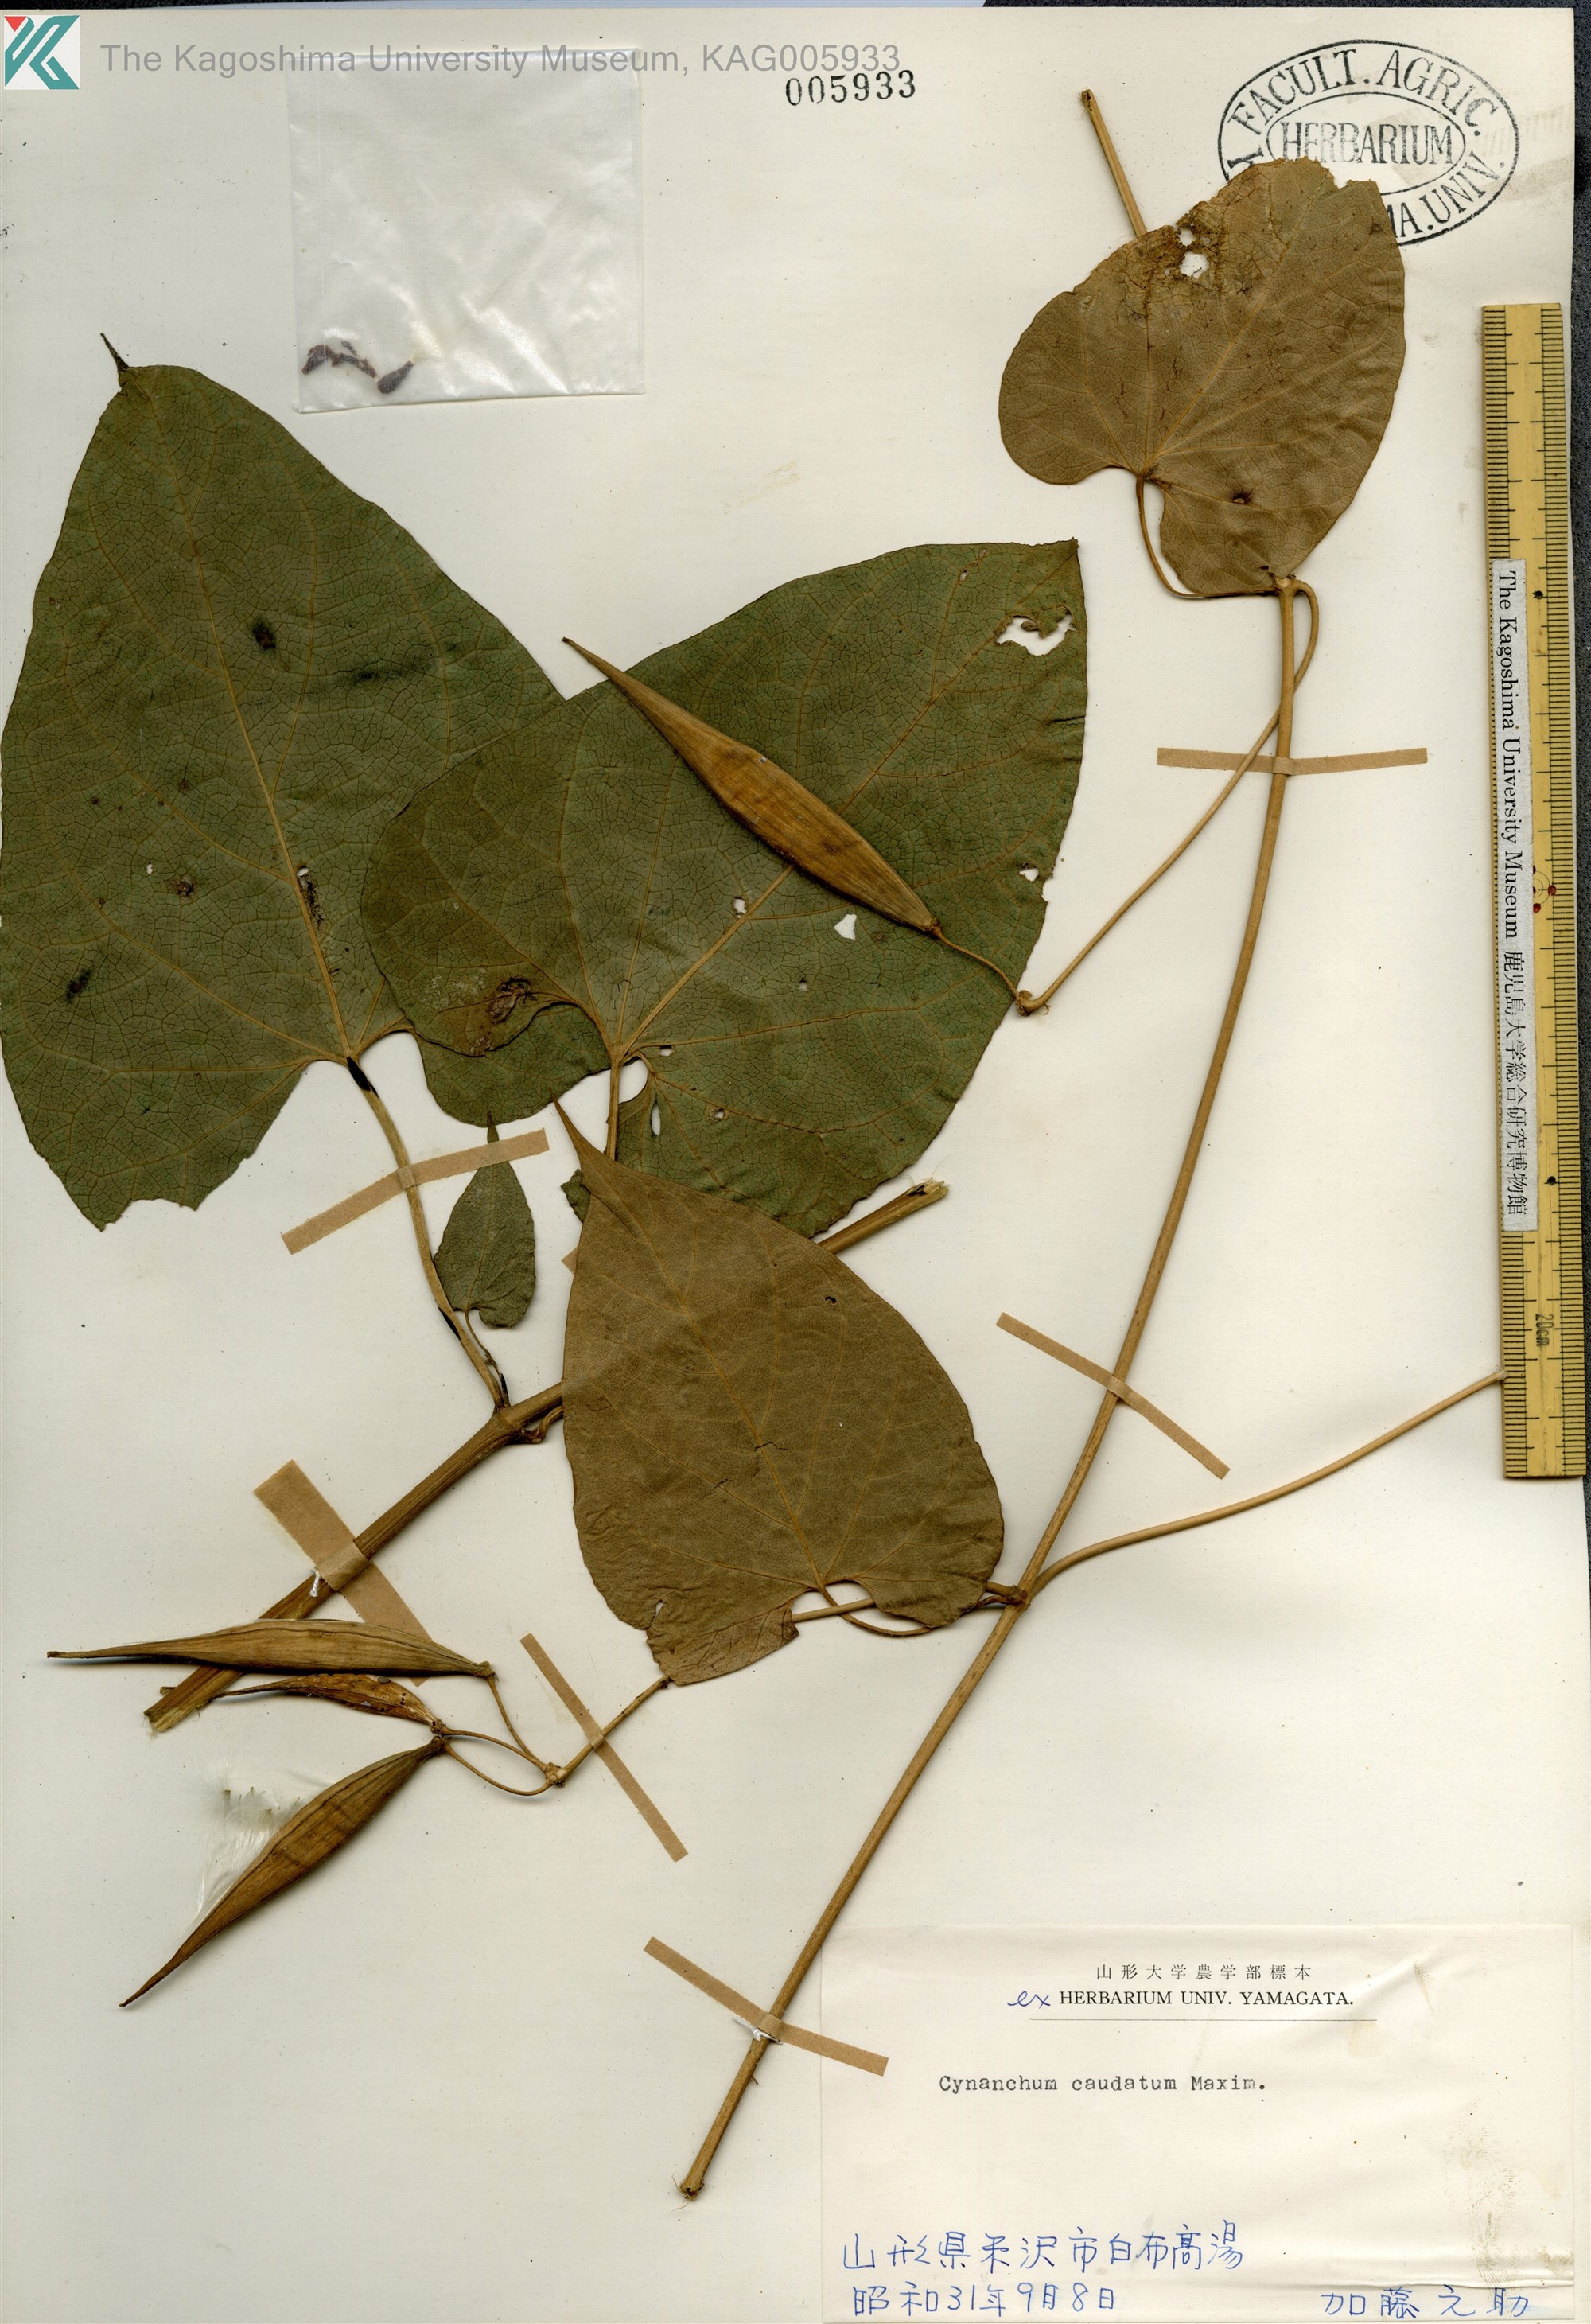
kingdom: Plantae
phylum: Tracheophyta
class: Magnoliopsida
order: Gentianales
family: Apocynaceae
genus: Orthosia
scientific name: Orthosia virgata
